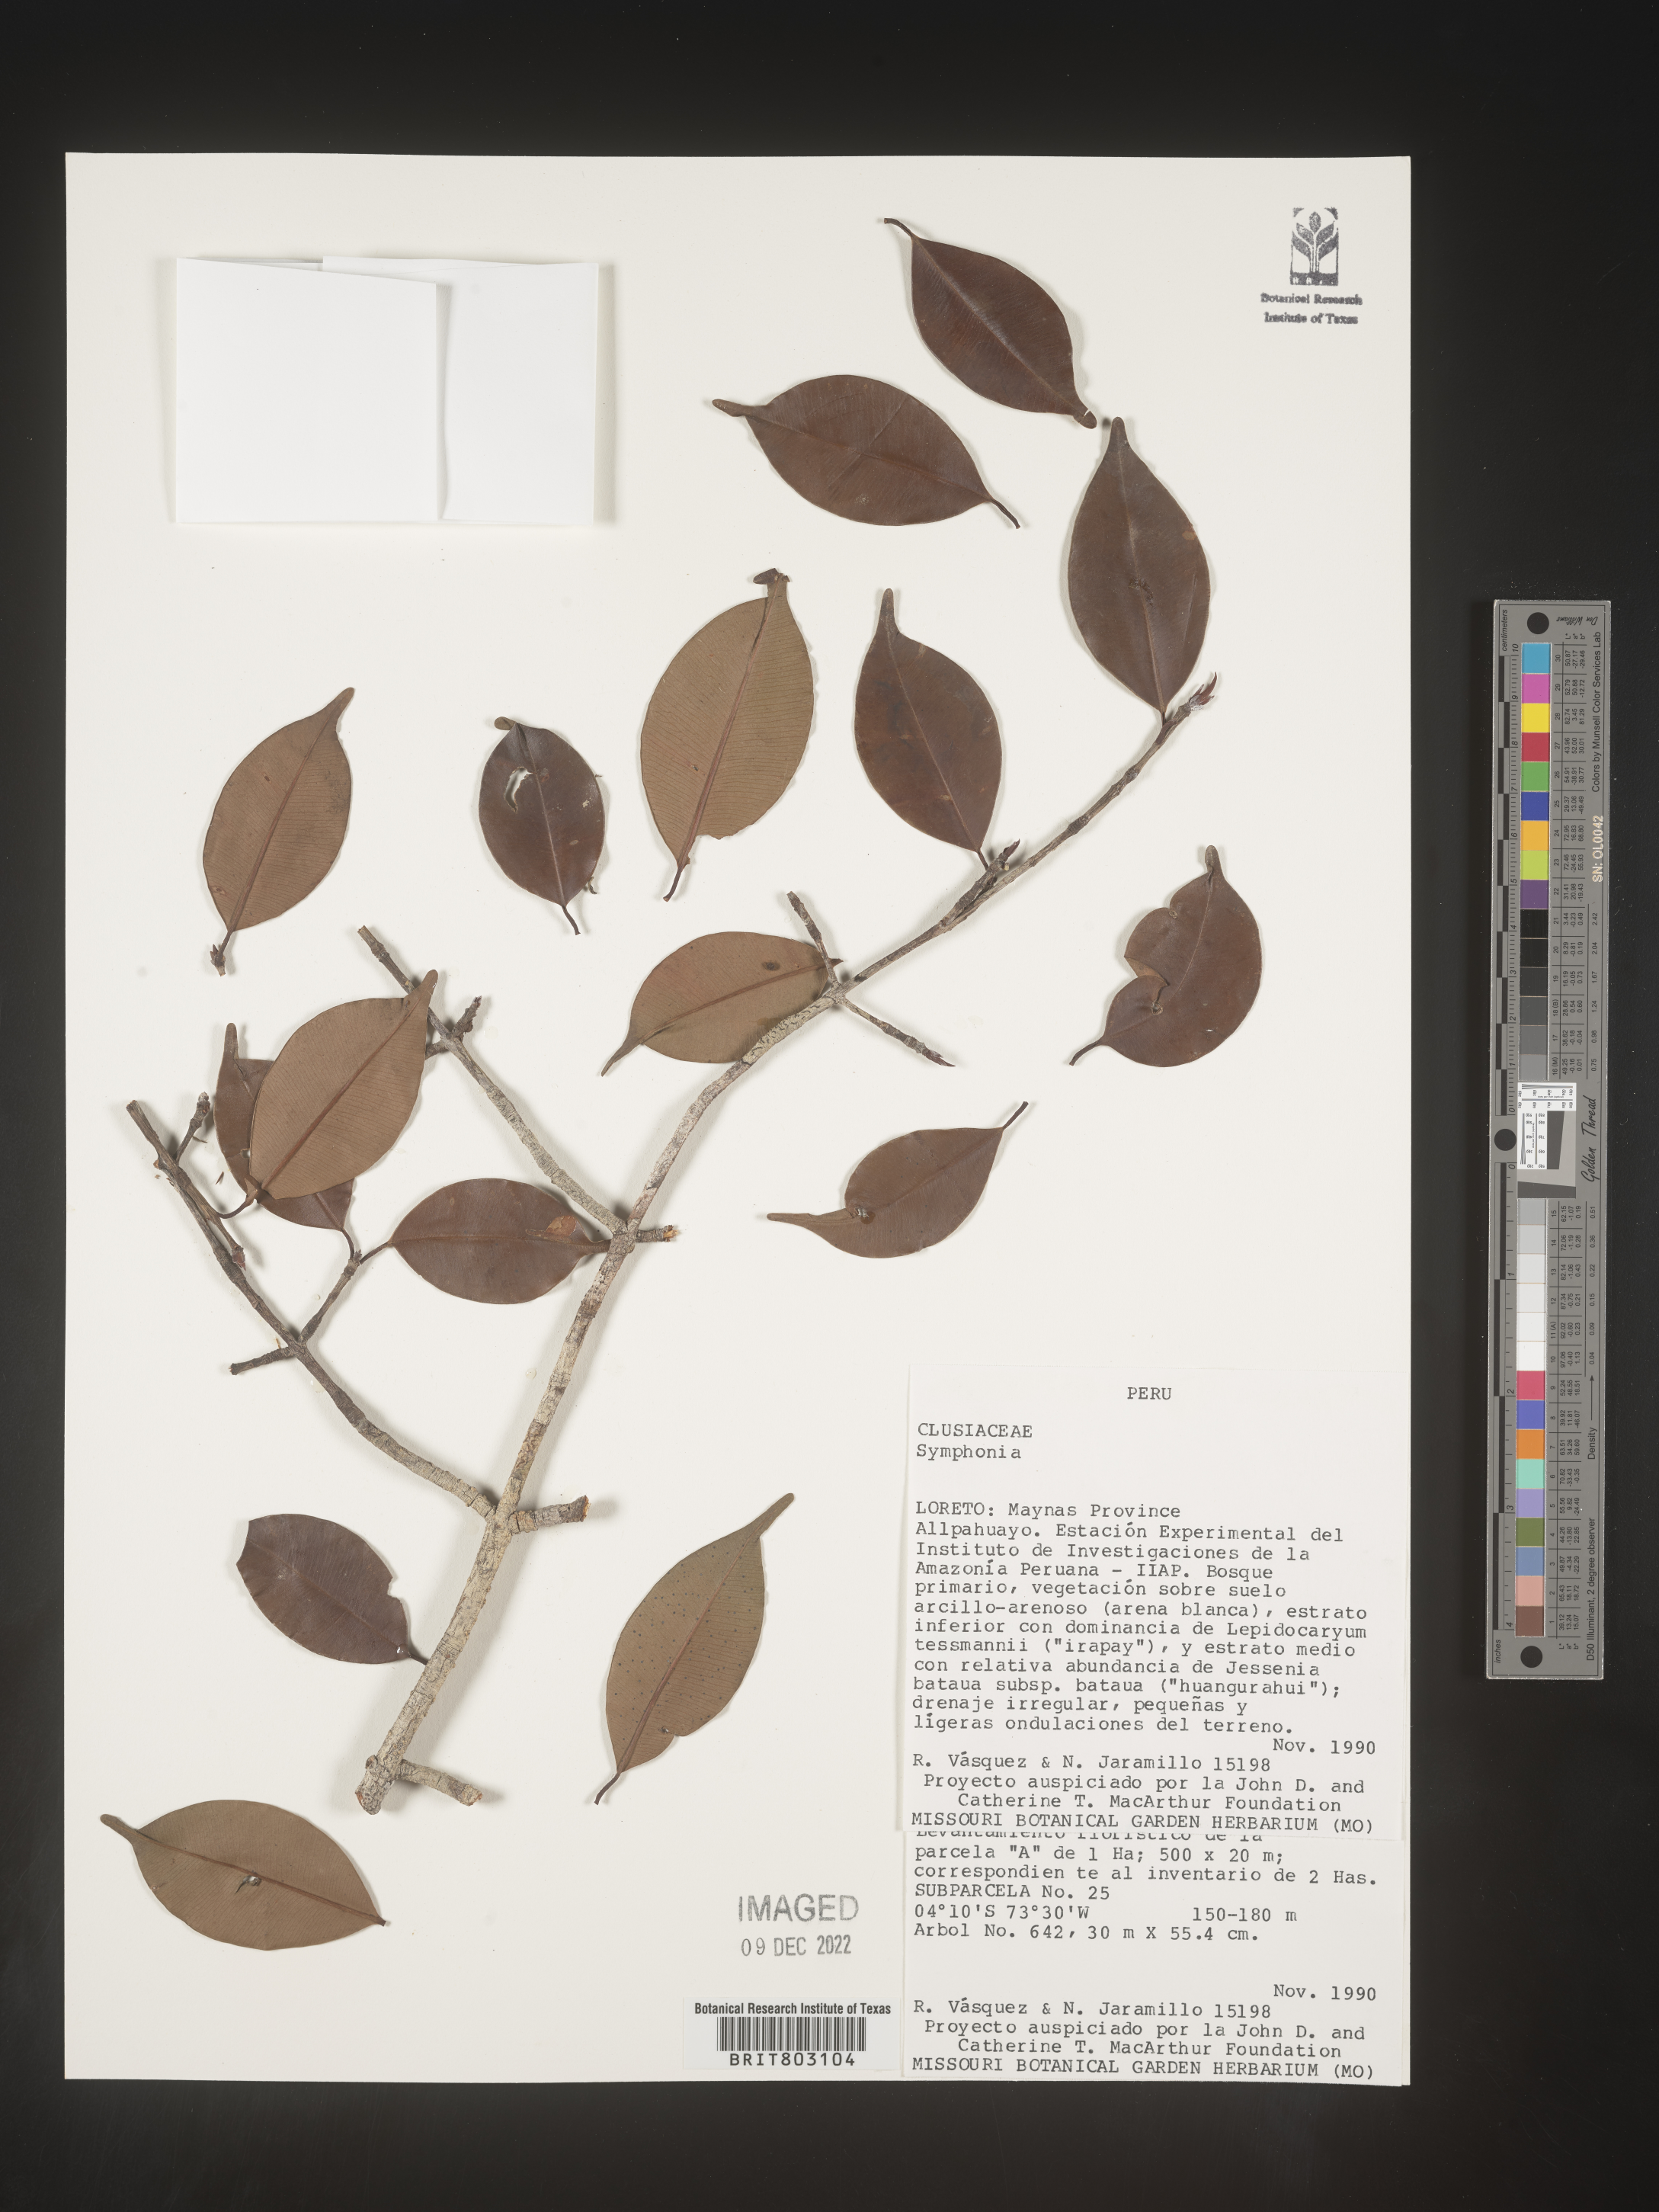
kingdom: Plantae
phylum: Tracheophyta
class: Magnoliopsida
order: Malpighiales
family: Clusiaceae
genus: Symphonia
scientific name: Symphonia
